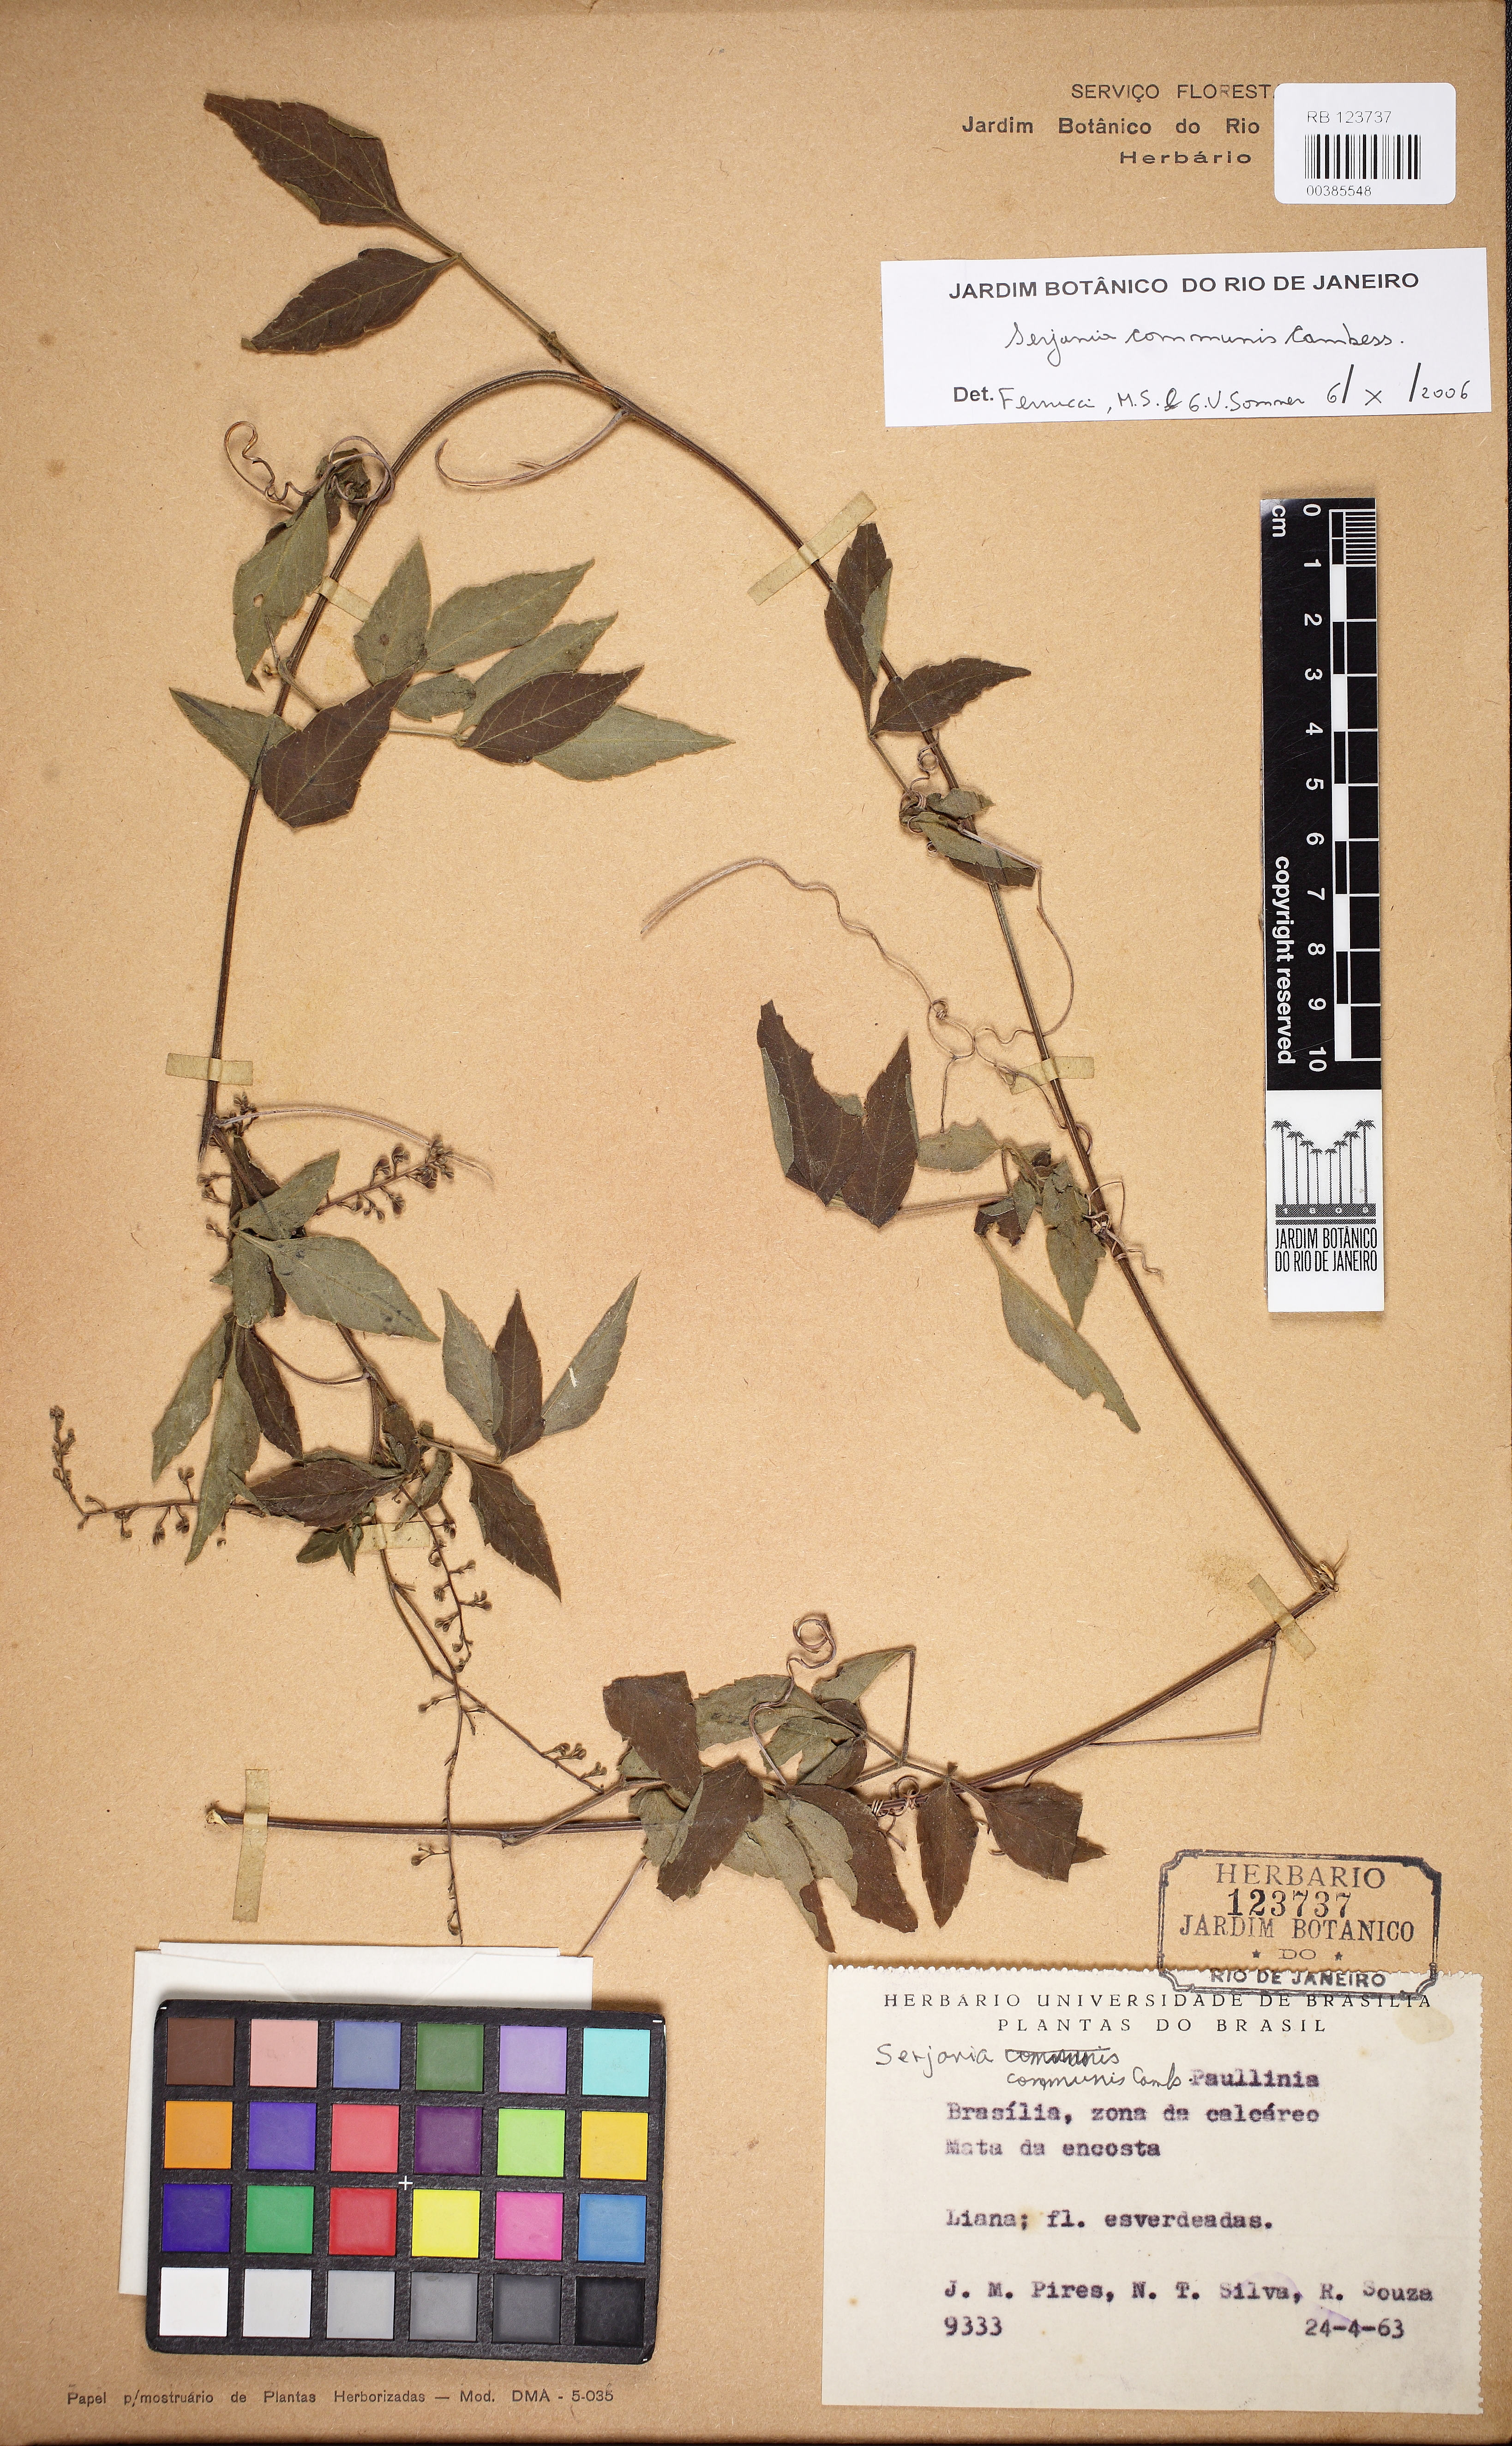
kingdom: Plantae
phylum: Tracheophyta
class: Magnoliopsida
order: Sapindales
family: Sapindaceae
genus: Serjania
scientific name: Serjania communis
